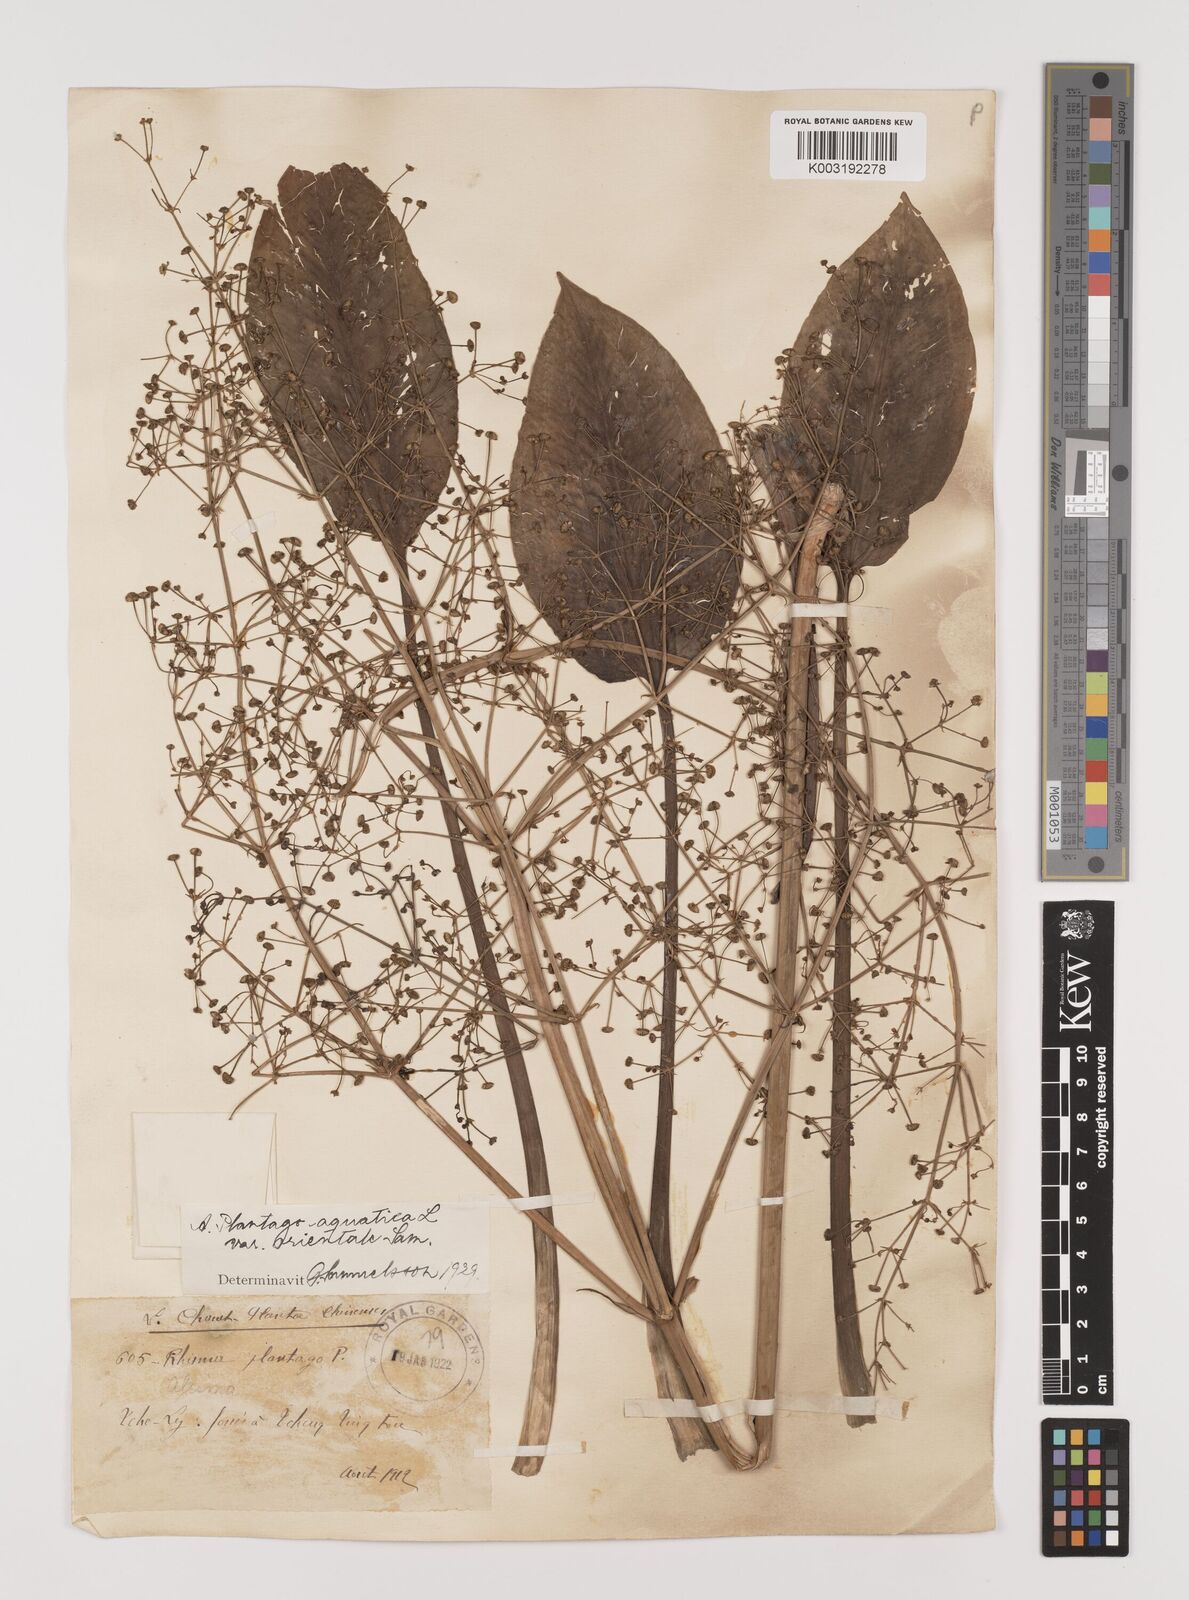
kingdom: Plantae
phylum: Tracheophyta
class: Liliopsida
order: Alismatales
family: Alismataceae
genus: Alisma
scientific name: Alisma plantago-aquatica
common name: Water-plantain
